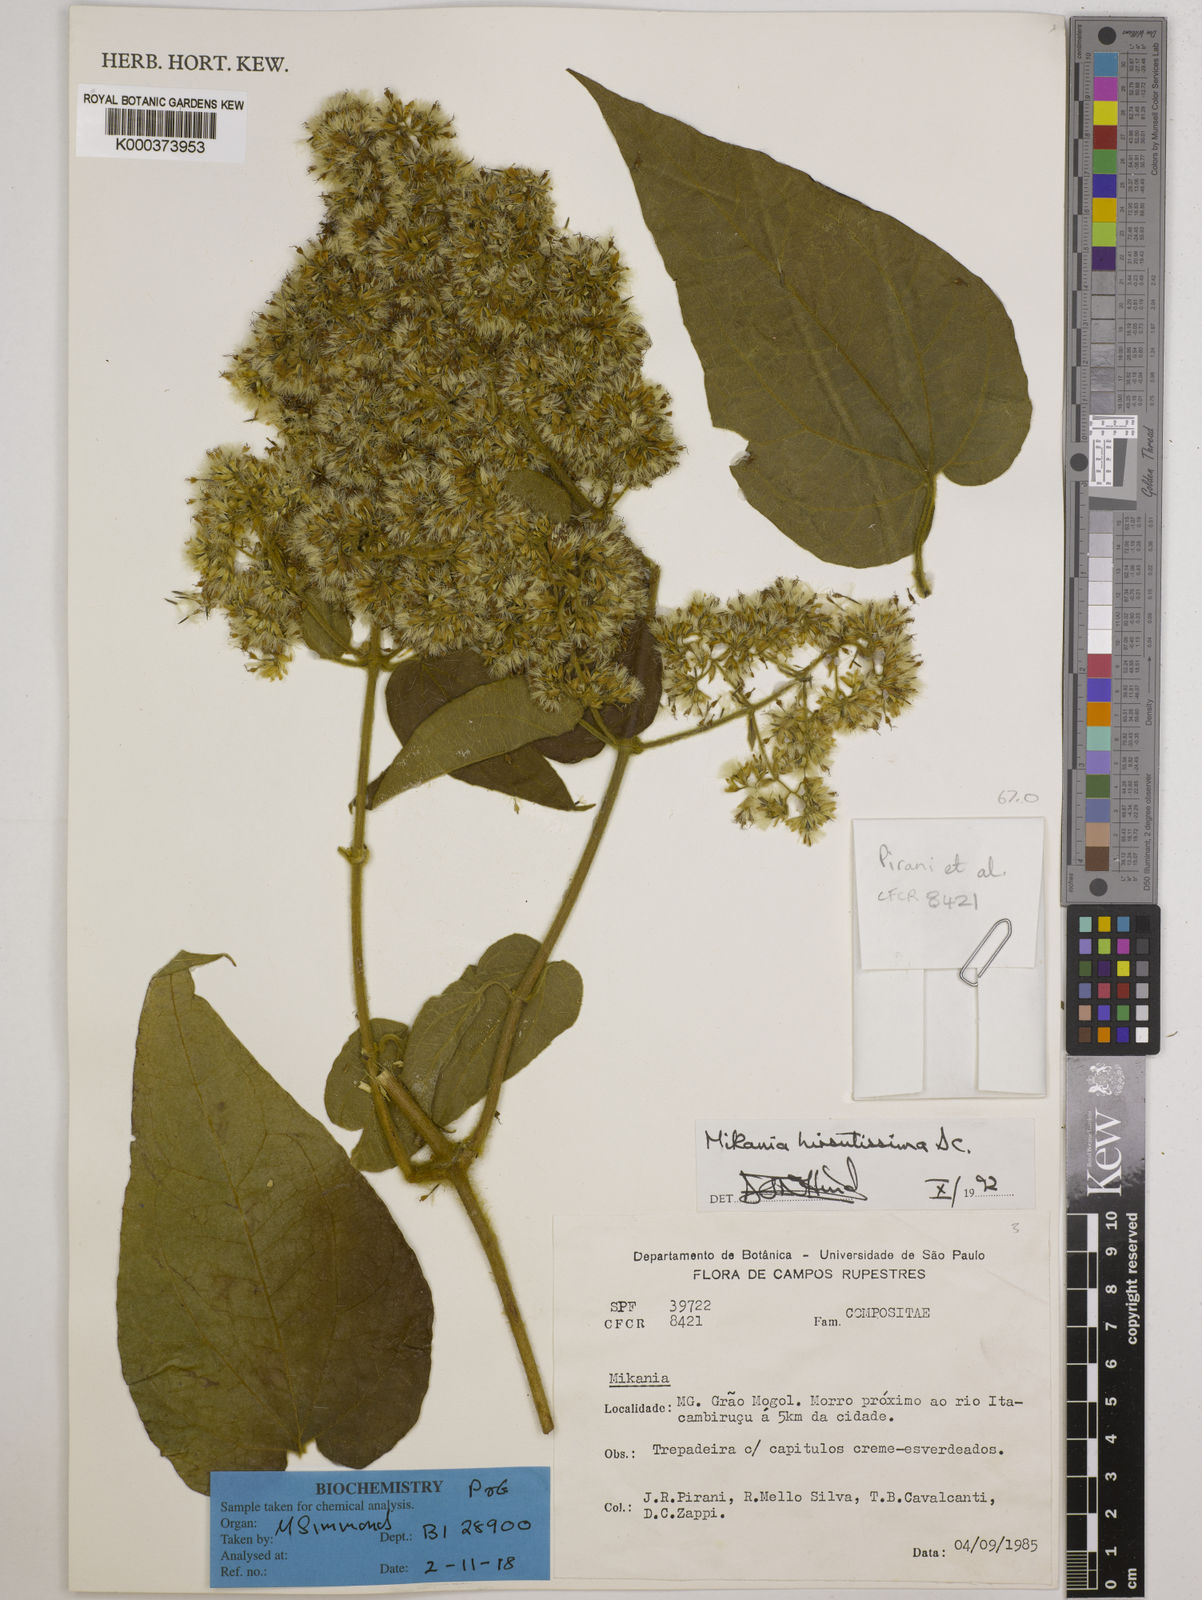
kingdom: Plantae
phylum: Tracheophyta
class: Magnoliopsida
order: Asterales
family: Asteraceae
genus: Mikania
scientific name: Mikania banisteriae
